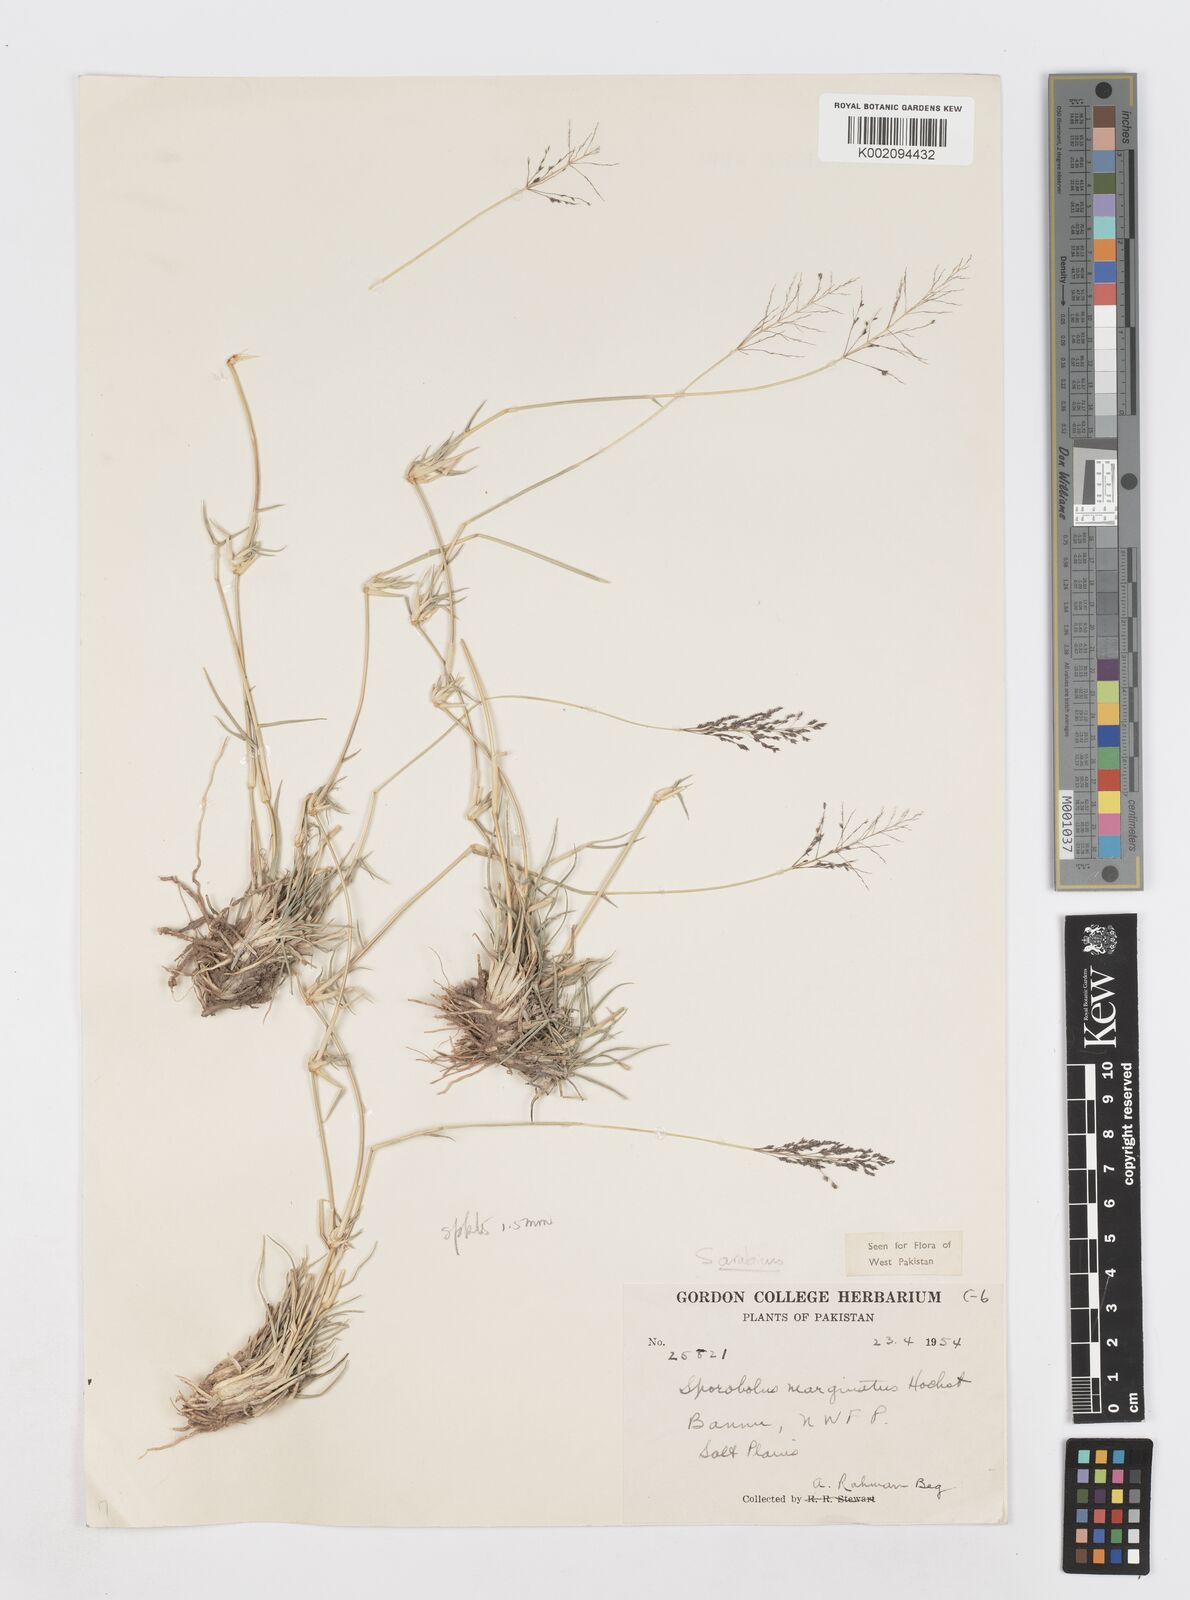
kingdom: Plantae
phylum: Tracheophyta
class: Liliopsida
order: Poales
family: Poaceae
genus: Sporobolus
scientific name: Sporobolus gloeoclados
